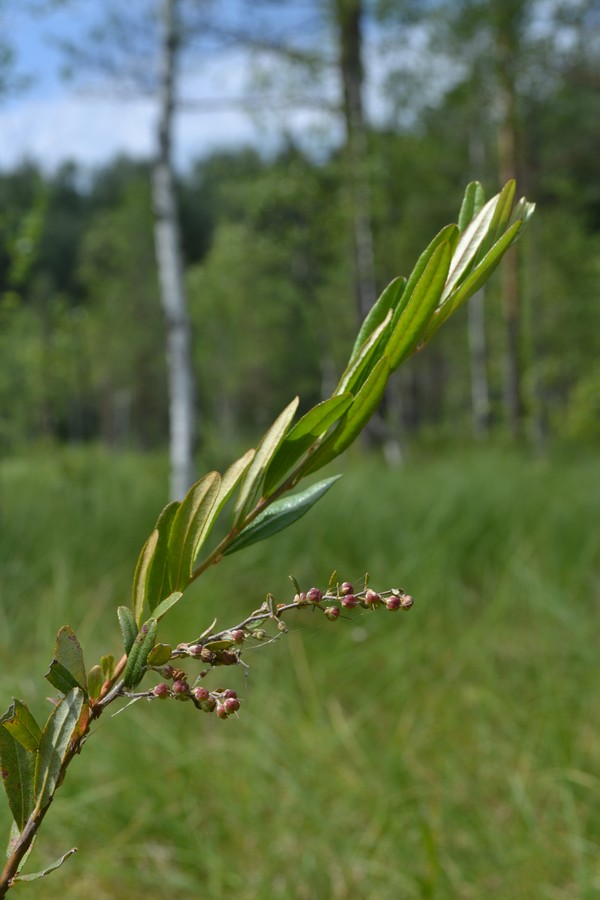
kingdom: Plantae
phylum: Tracheophyta
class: Magnoliopsida
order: Ericales
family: Ericaceae
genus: Chamaedaphne
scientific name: Chamaedaphne calyculata
